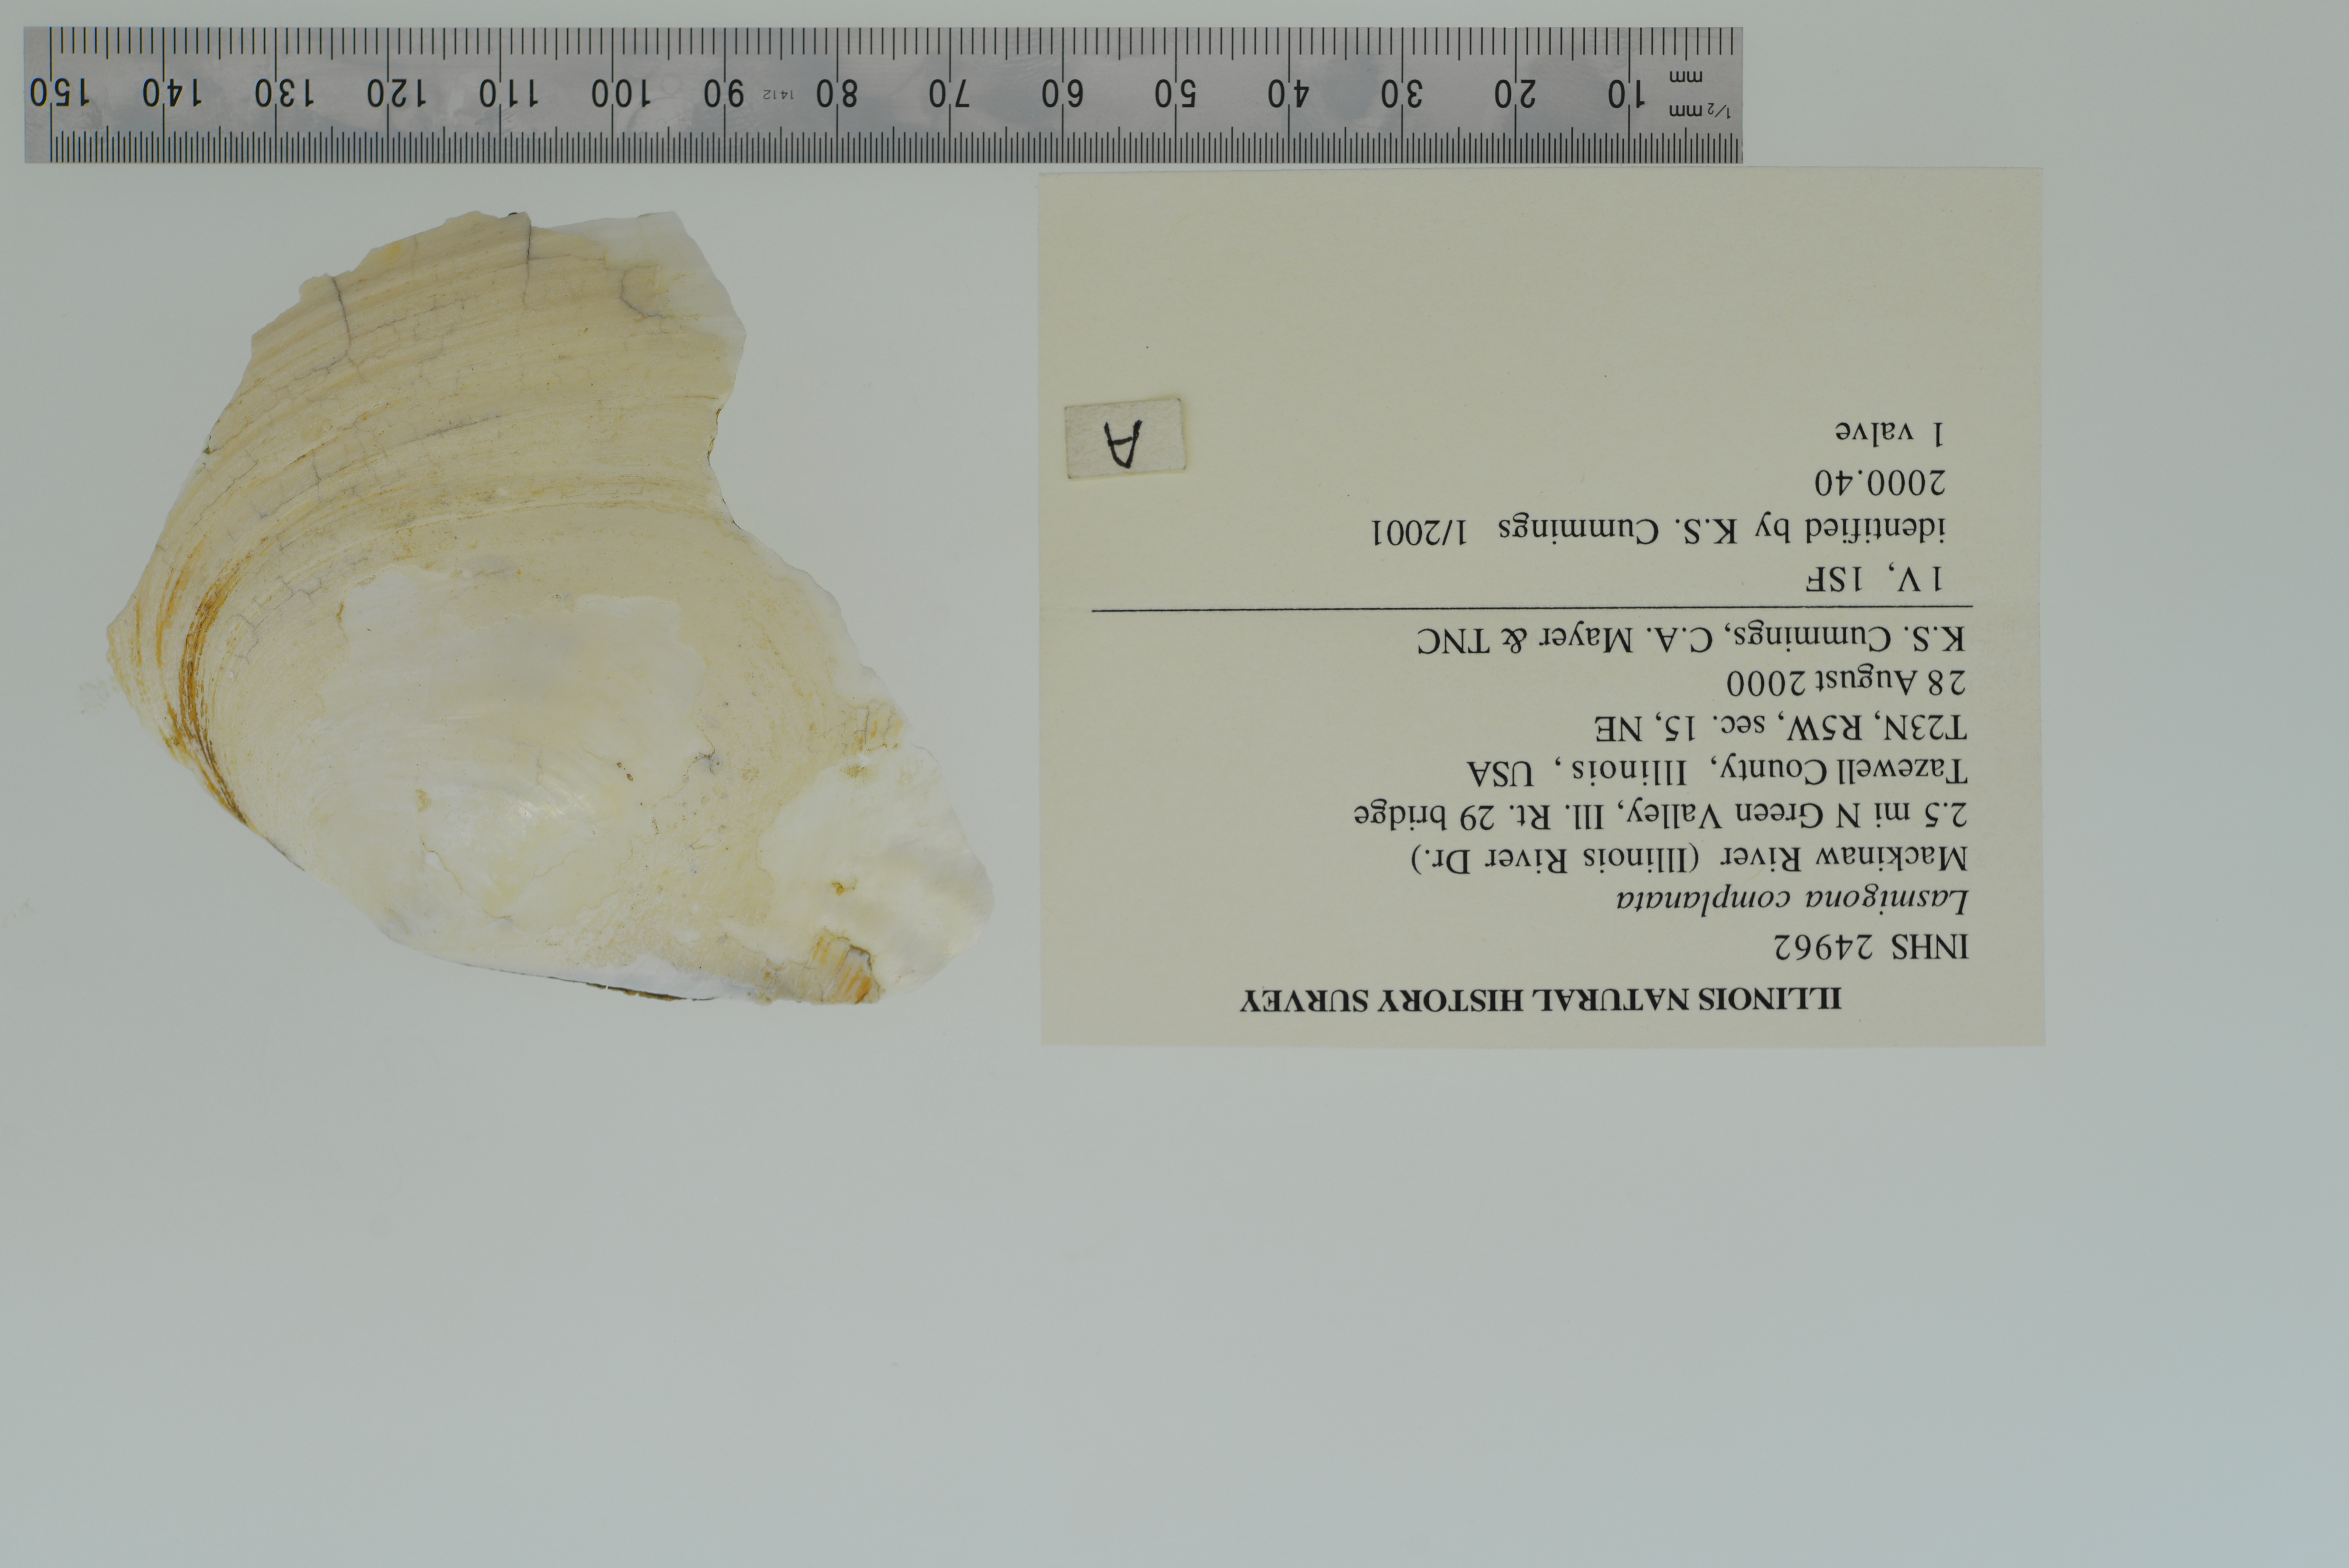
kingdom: Animalia
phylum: Mollusca
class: Bivalvia
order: Unionida
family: Unionidae
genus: Lasmigona
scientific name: Lasmigona complanata
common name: White heelsplitter
